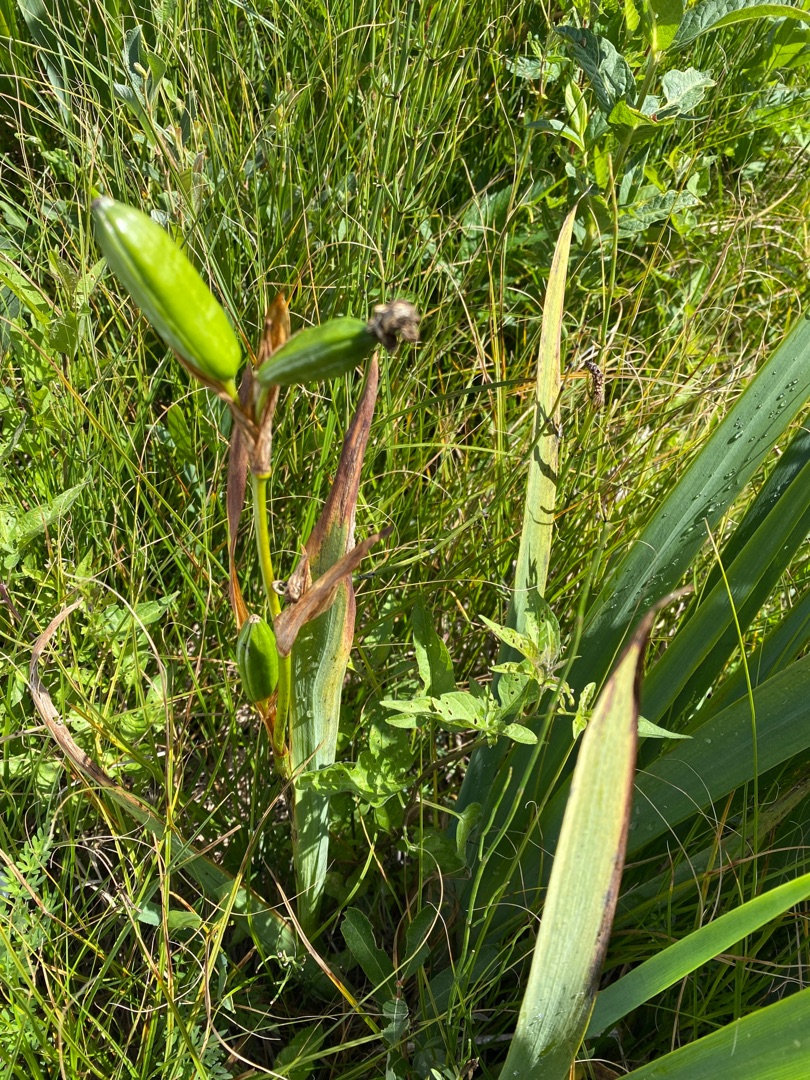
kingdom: Plantae
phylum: Tracheophyta
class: Liliopsida
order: Asparagales
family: Iridaceae
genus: Iris
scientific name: Iris pseudacorus
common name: Gul iris
